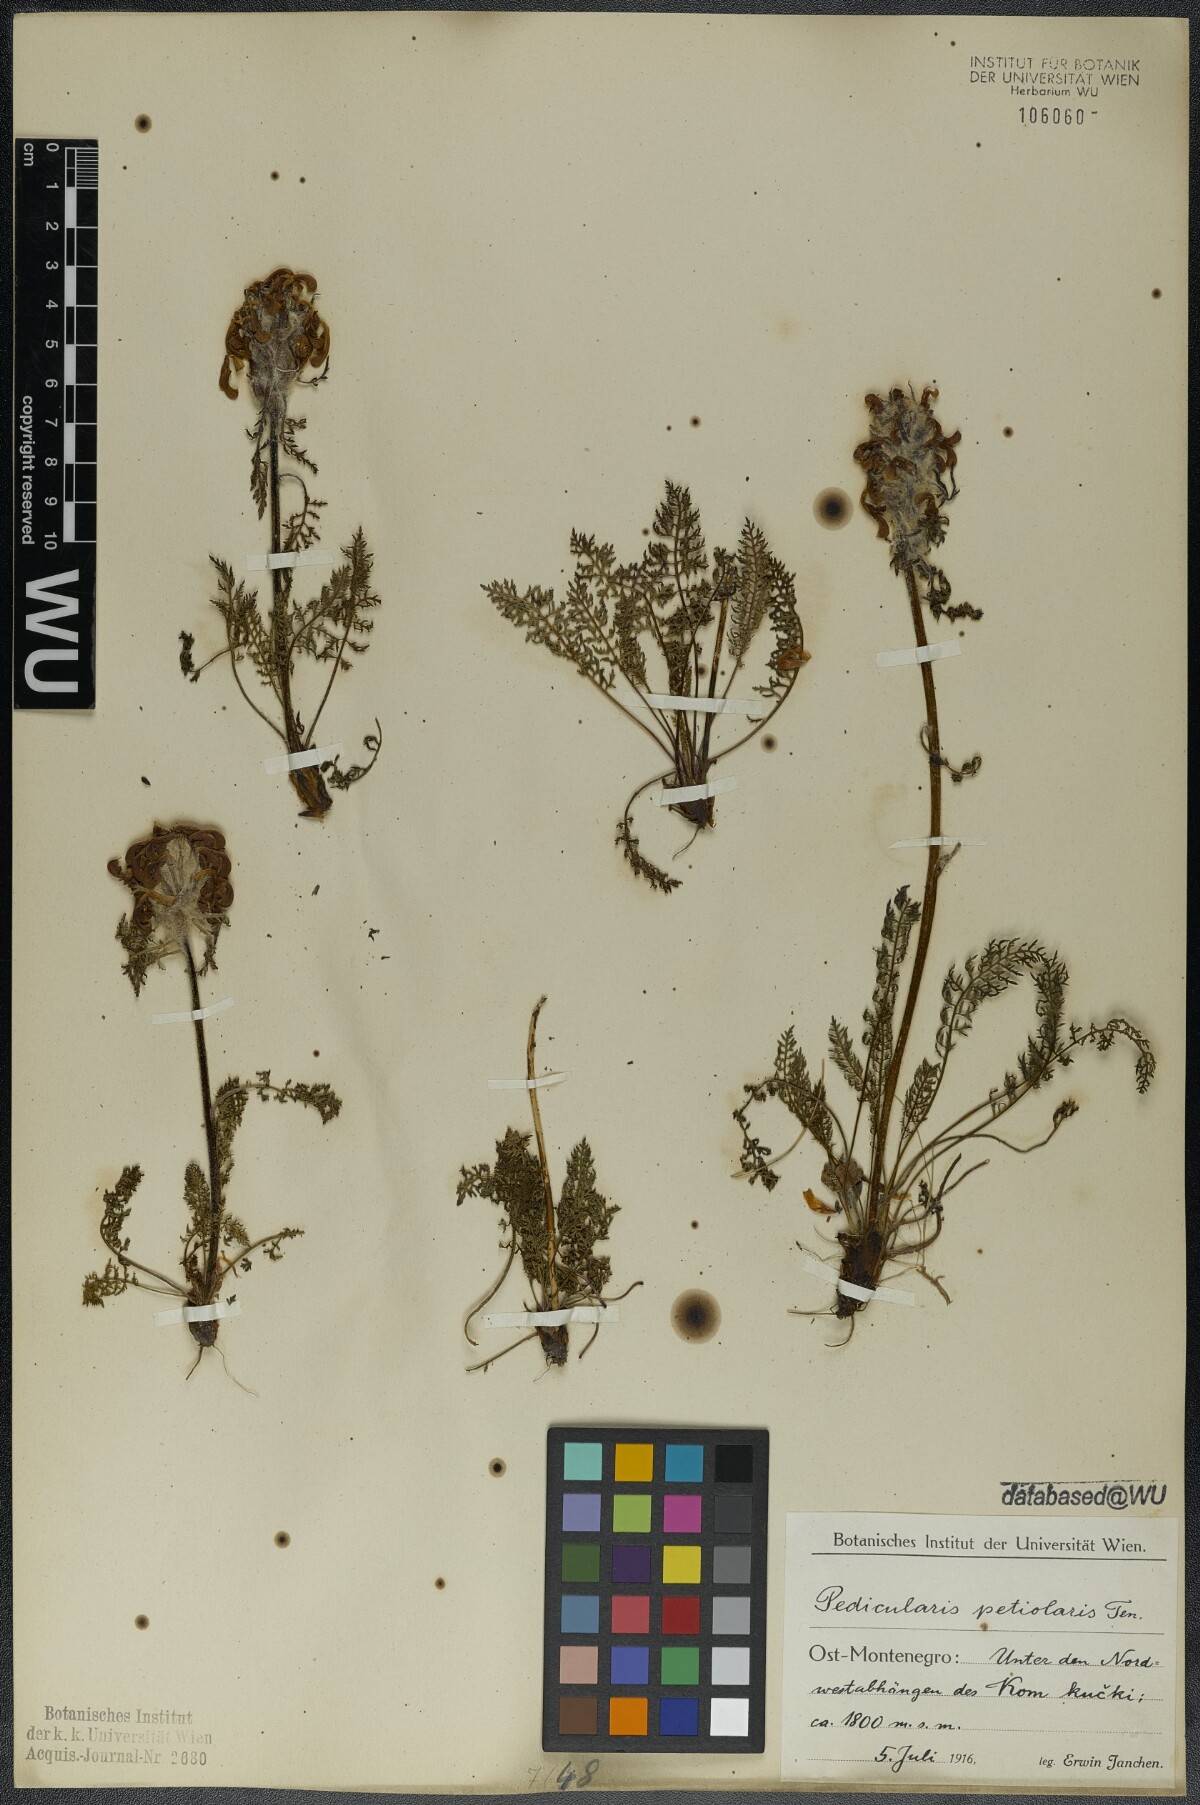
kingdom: Plantae
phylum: Tracheophyta
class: Magnoliopsida
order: Lamiales
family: Orobanchaceae
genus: Pedicularis
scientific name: Pedicularis petiolaris
